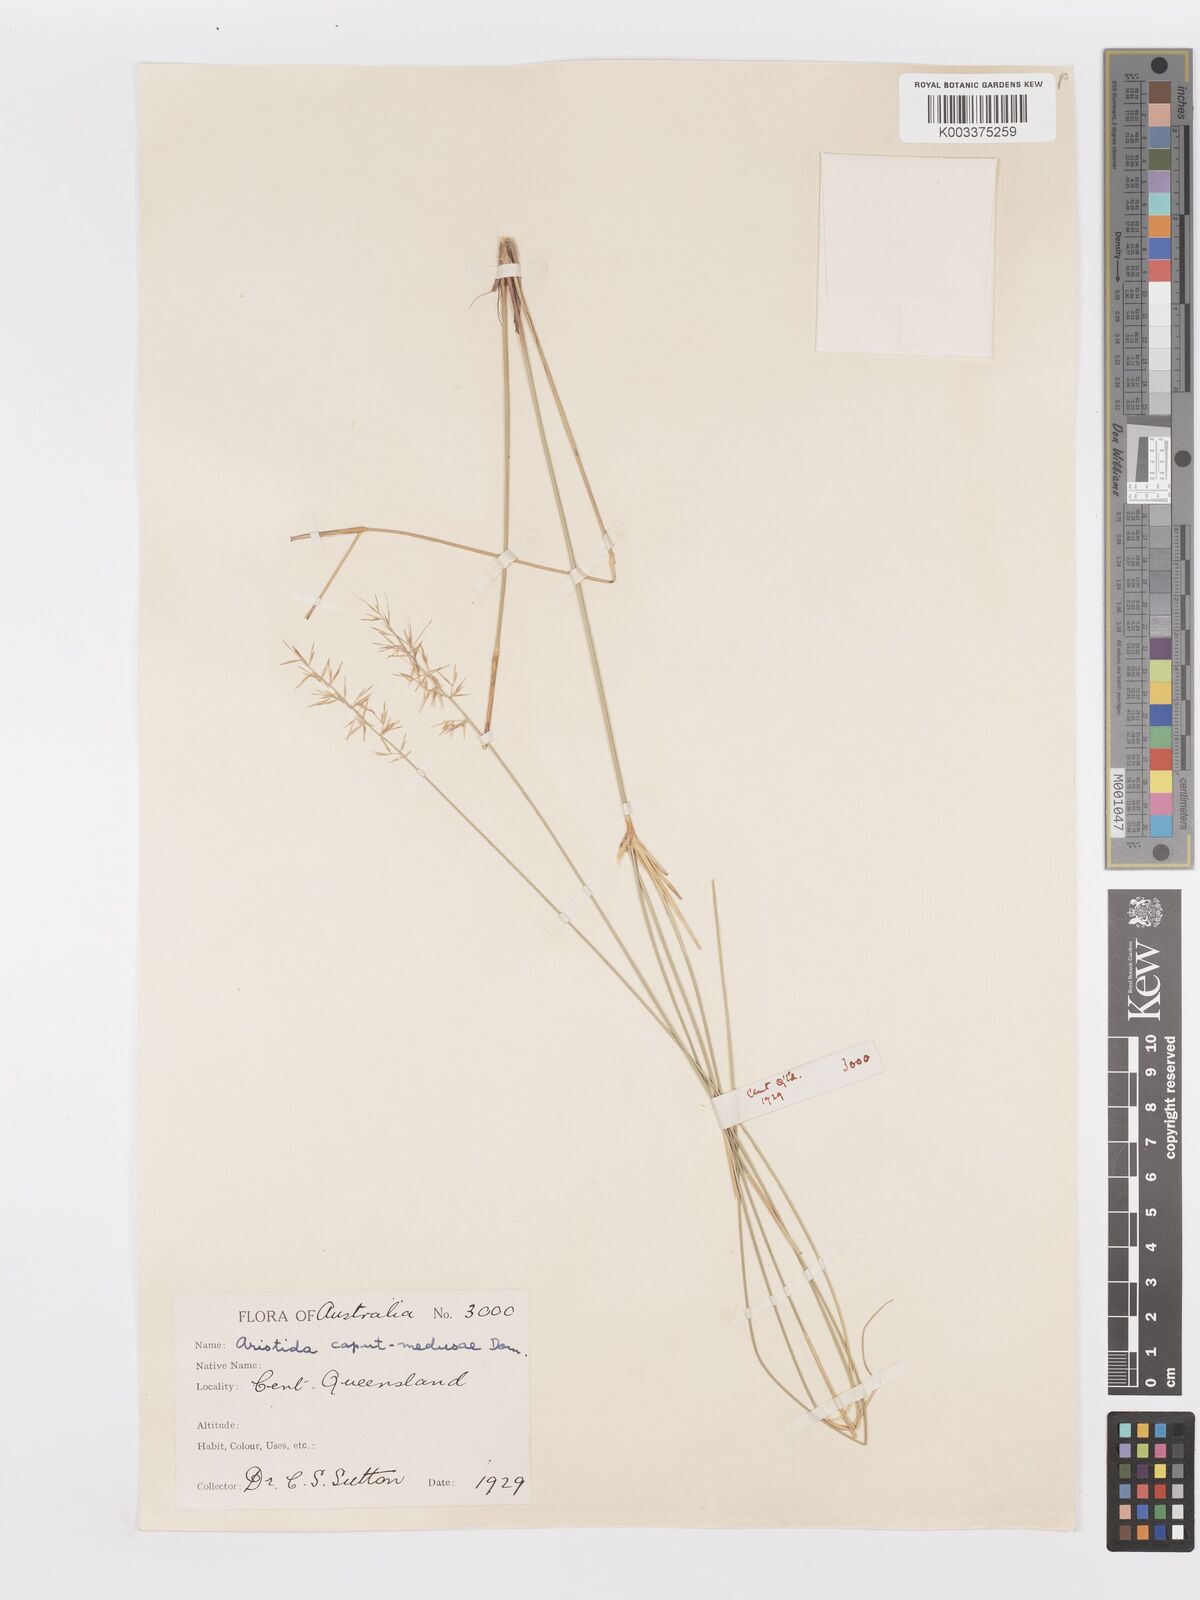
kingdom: Plantae
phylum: Tracheophyta
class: Liliopsida
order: Poales
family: Poaceae
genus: Aristida
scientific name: Aristida caput-medusae
